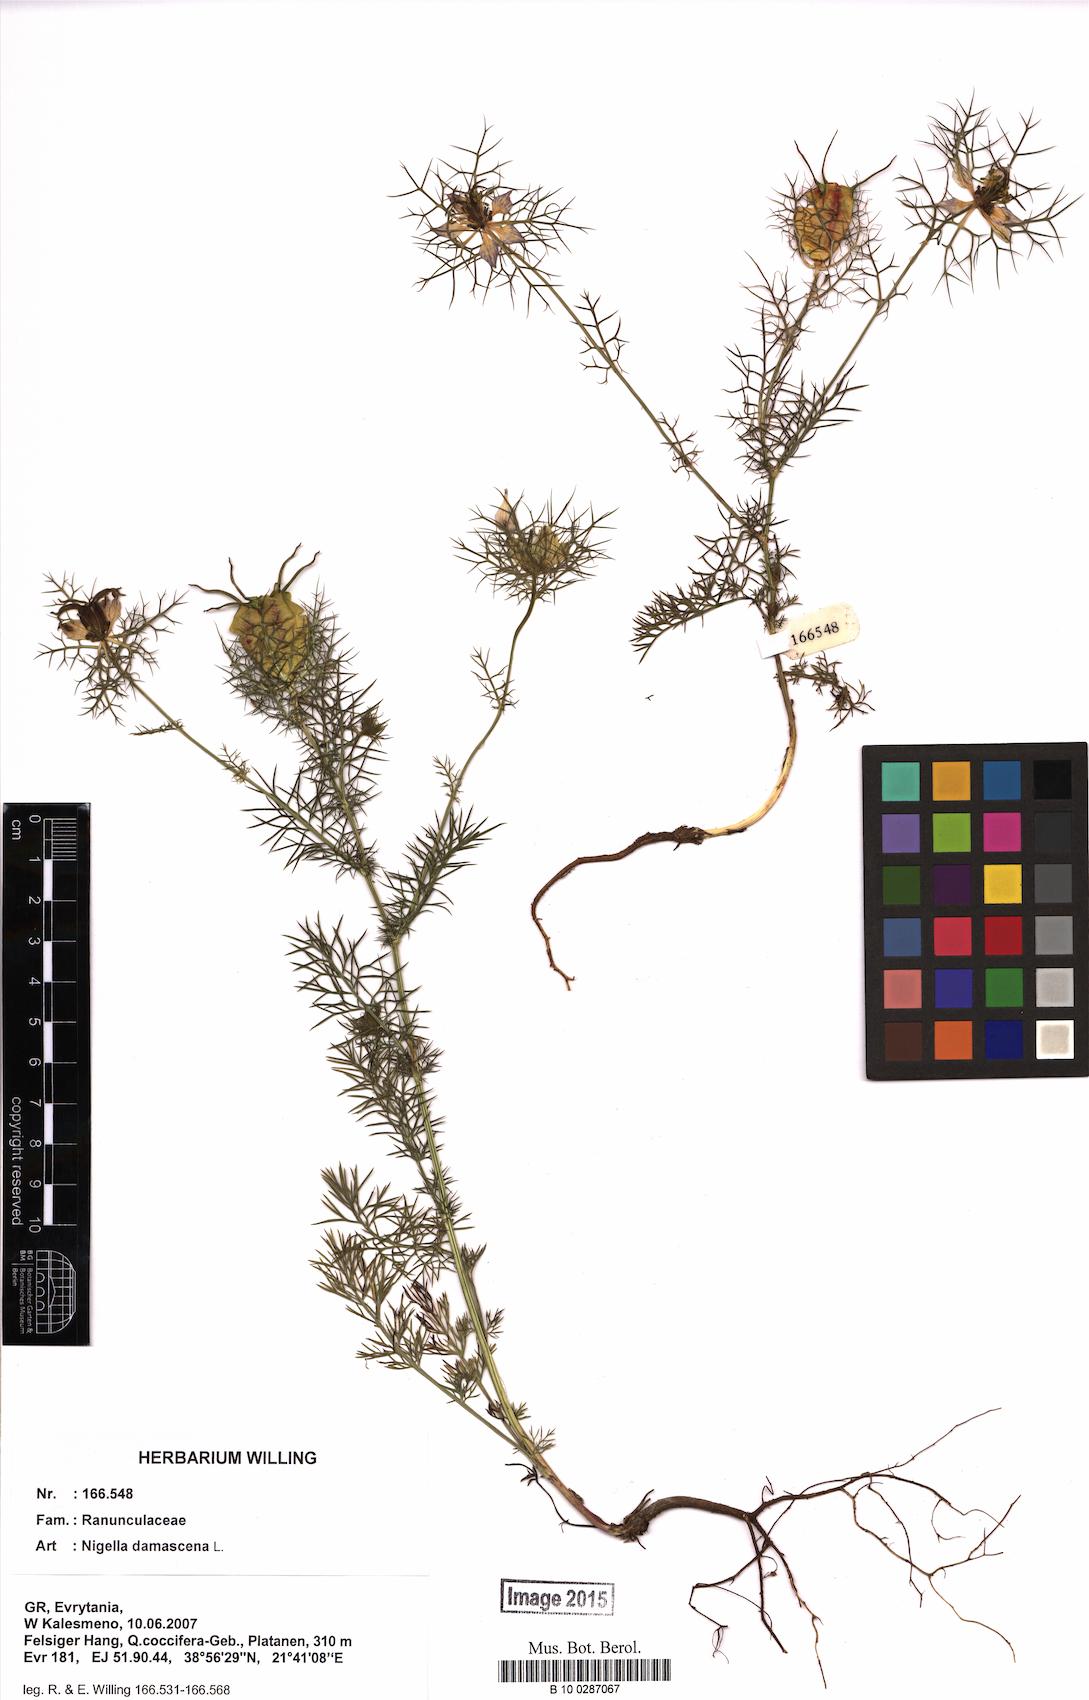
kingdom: Plantae
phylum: Tracheophyta
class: Magnoliopsida
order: Ranunculales
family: Ranunculaceae
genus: Nigella
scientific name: Nigella damascena
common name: Love-in-a-mist
